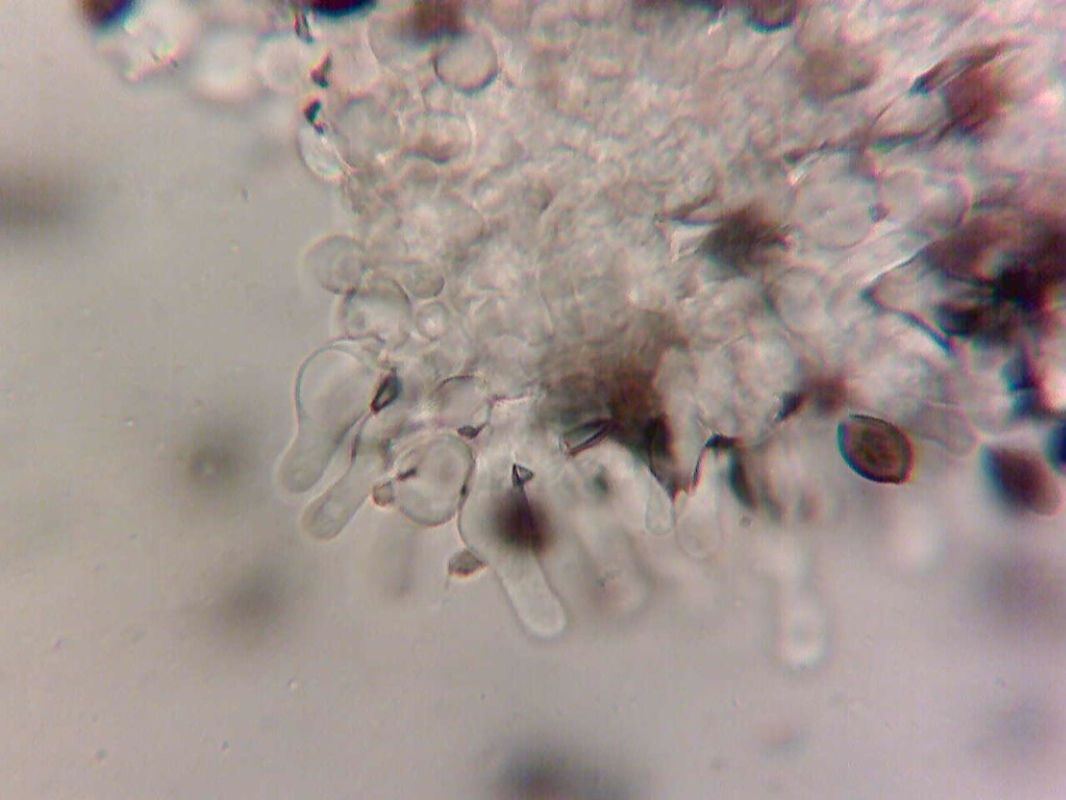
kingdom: Fungi
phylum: Basidiomycota
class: Agaricomycetes
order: Agaricales
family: Bolbitiaceae
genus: Panaeolus
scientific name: Panaeolus reticulatus
